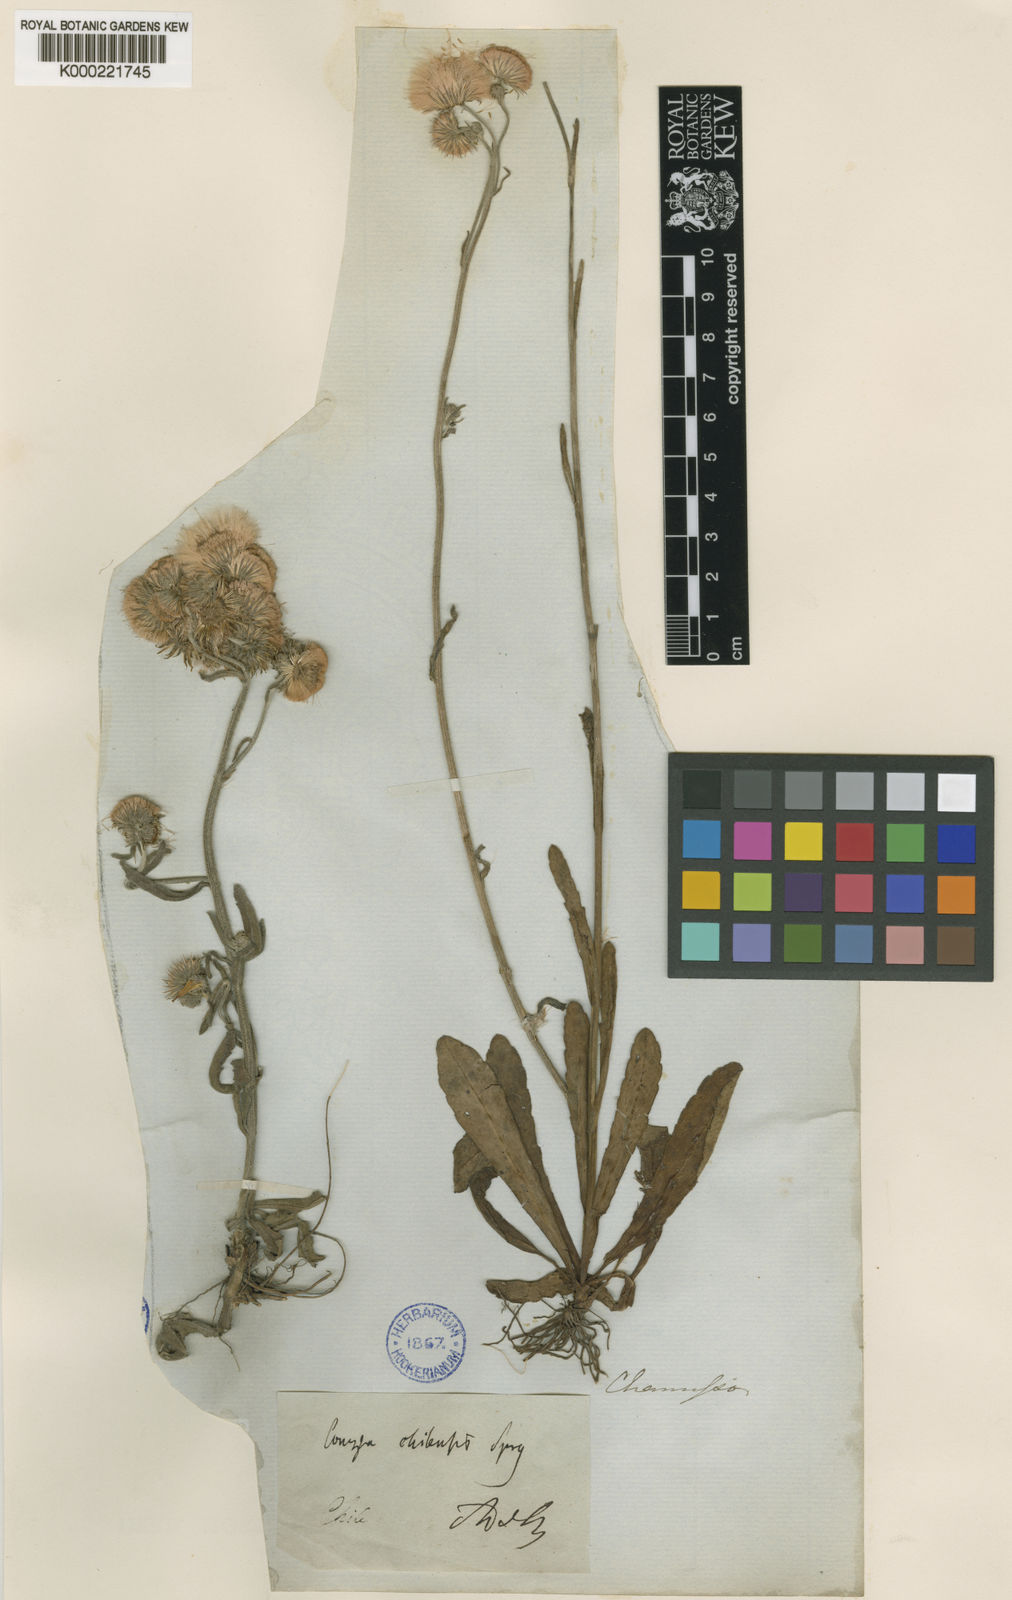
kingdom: Plantae
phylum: Tracheophyta
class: Magnoliopsida
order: Asterales
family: Asteraceae
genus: Erigeron
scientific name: Erigeron primulifolius
